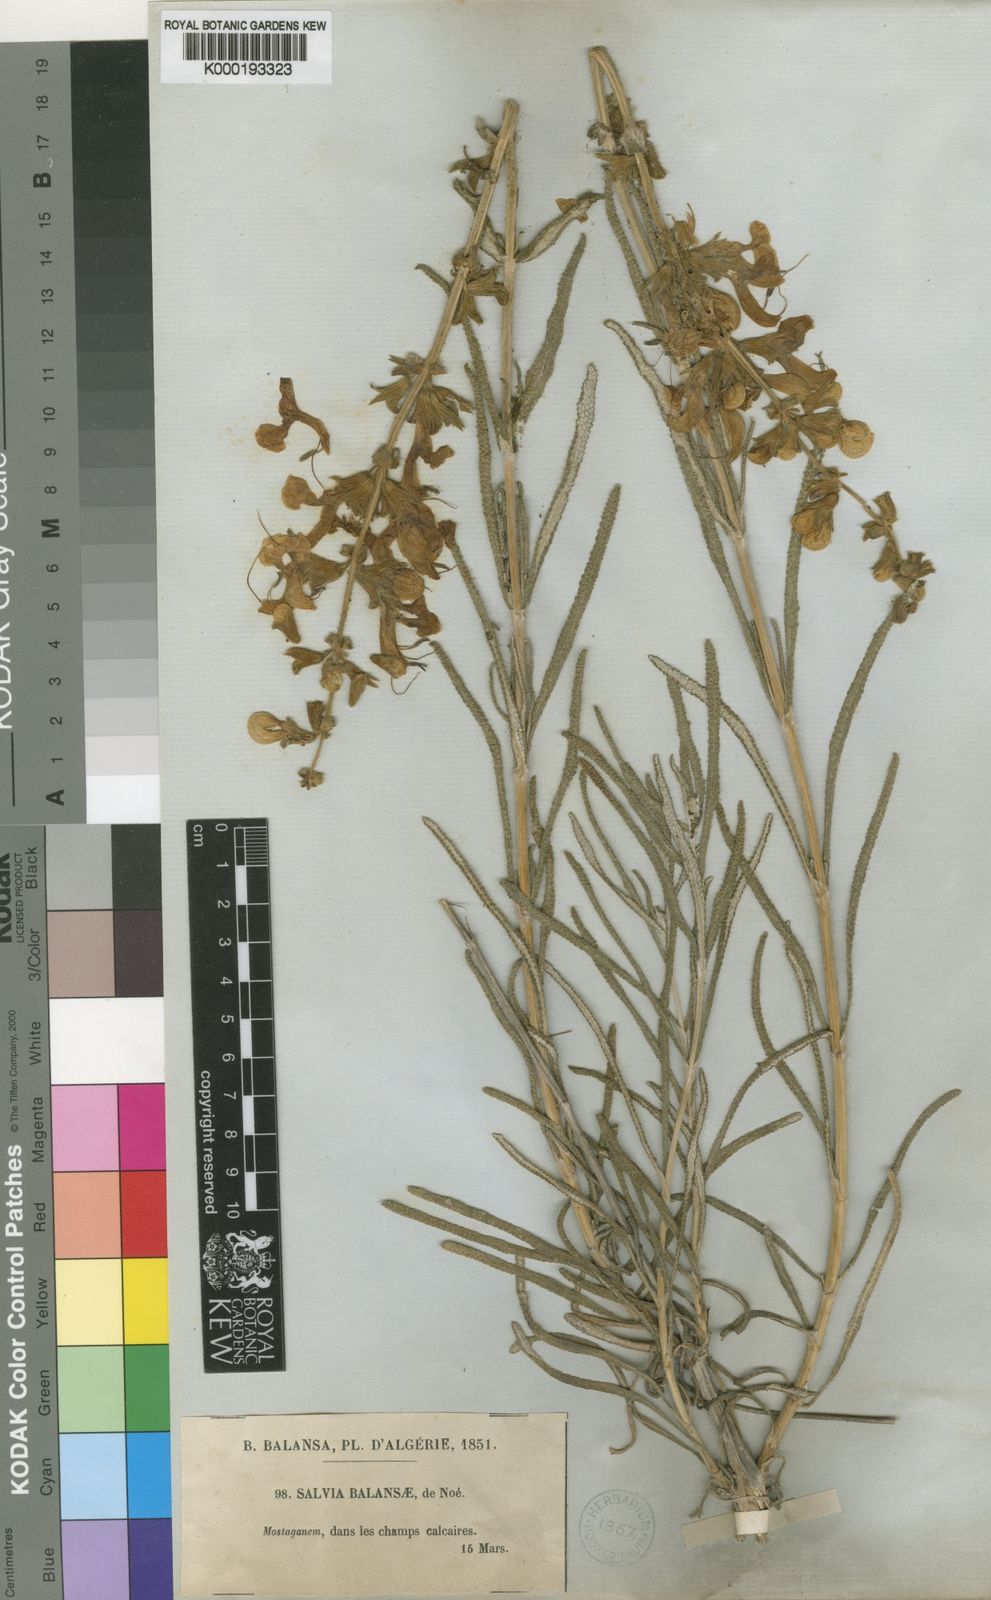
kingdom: Plantae
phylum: Tracheophyta
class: Magnoliopsida
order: Lamiales
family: Lamiaceae
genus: Salvia
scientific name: Salvia
